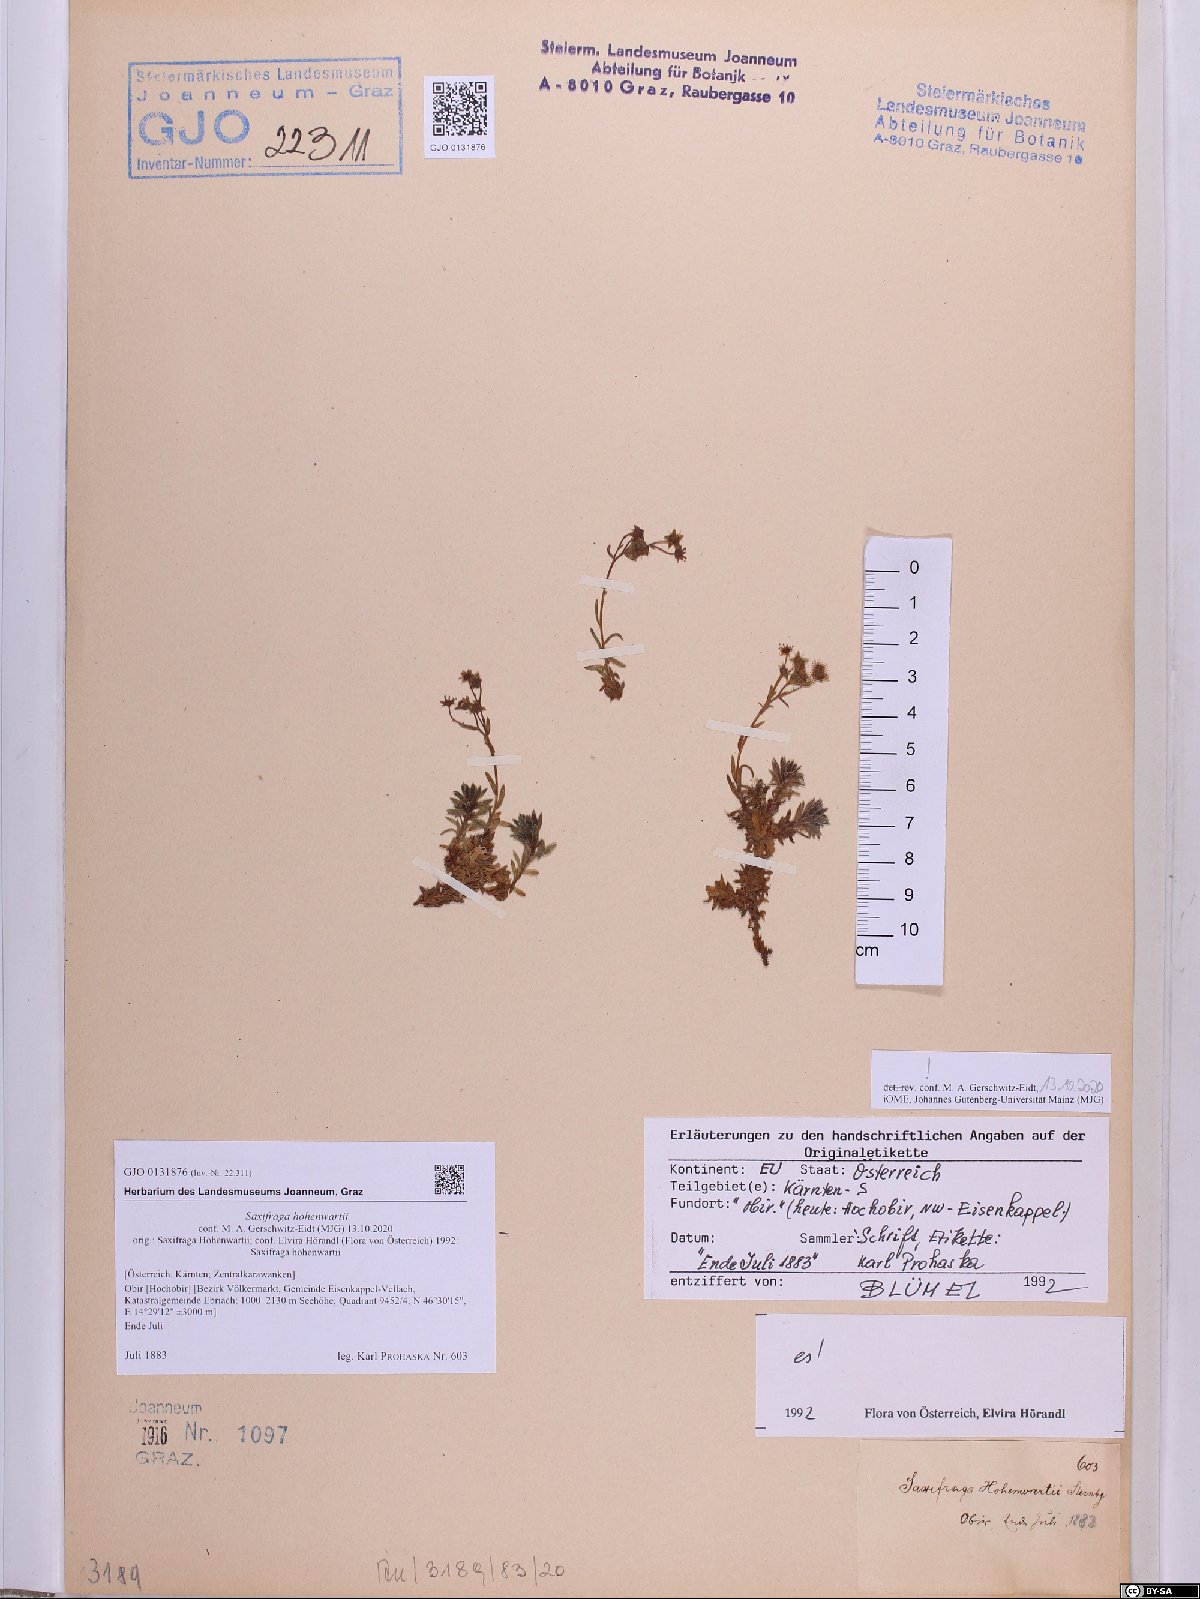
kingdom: Plantae
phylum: Tracheophyta
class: Magnoliopsida
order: Saxifragales
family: Saxifragaceae
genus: Saxifraga
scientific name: Saxifraga hohenwartii
